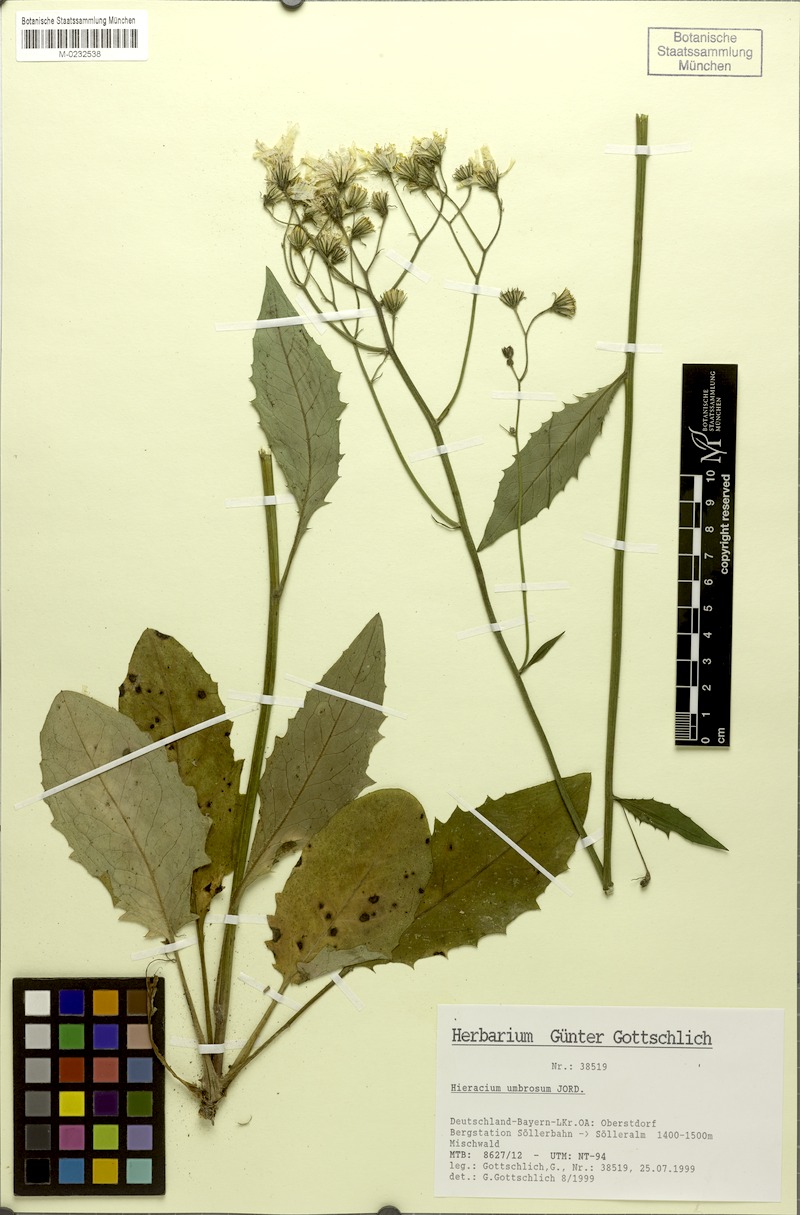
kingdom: Plantae
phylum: Tracheophyta
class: Magnoliopsida
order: Asterales
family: Asteraceae
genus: Hieracium
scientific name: Hieracium umbrosum
